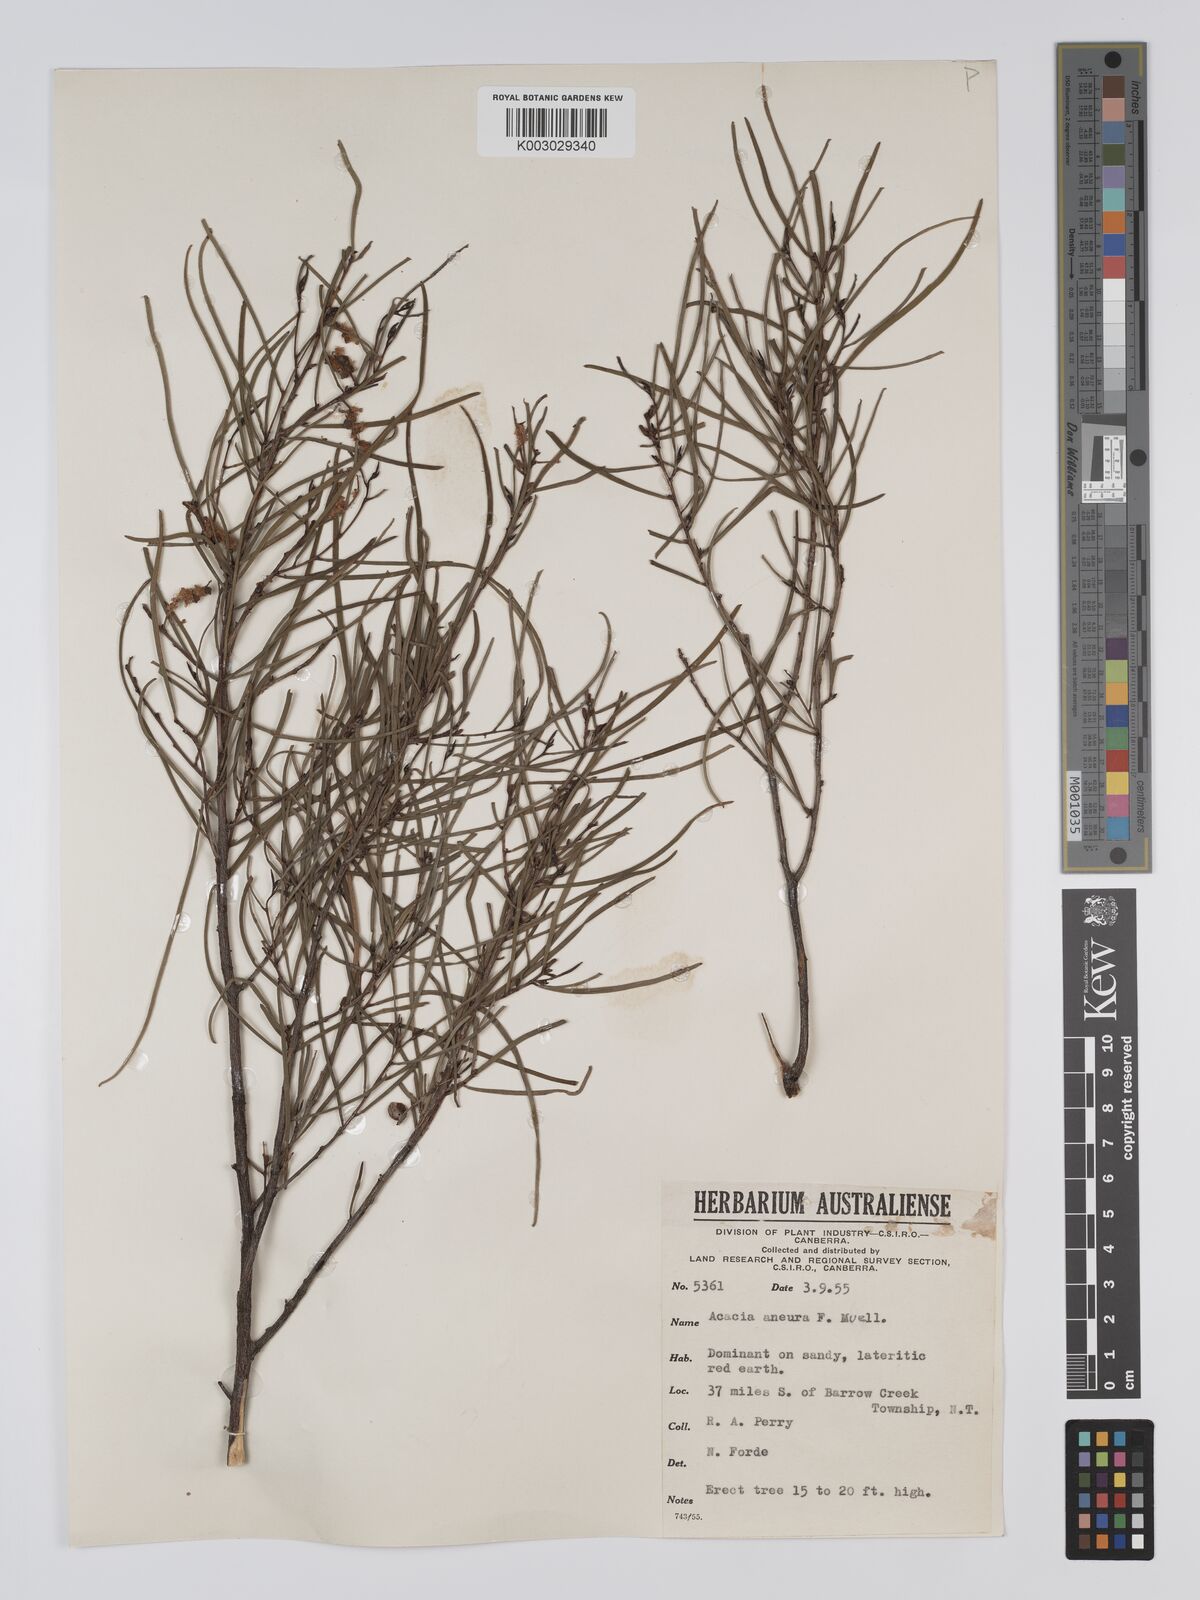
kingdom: Plantae
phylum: Tracheophyta
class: Magnoliopsida
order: Fabales
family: Fabaceae
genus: Acacia
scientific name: Acacia aneura
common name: Mulga
